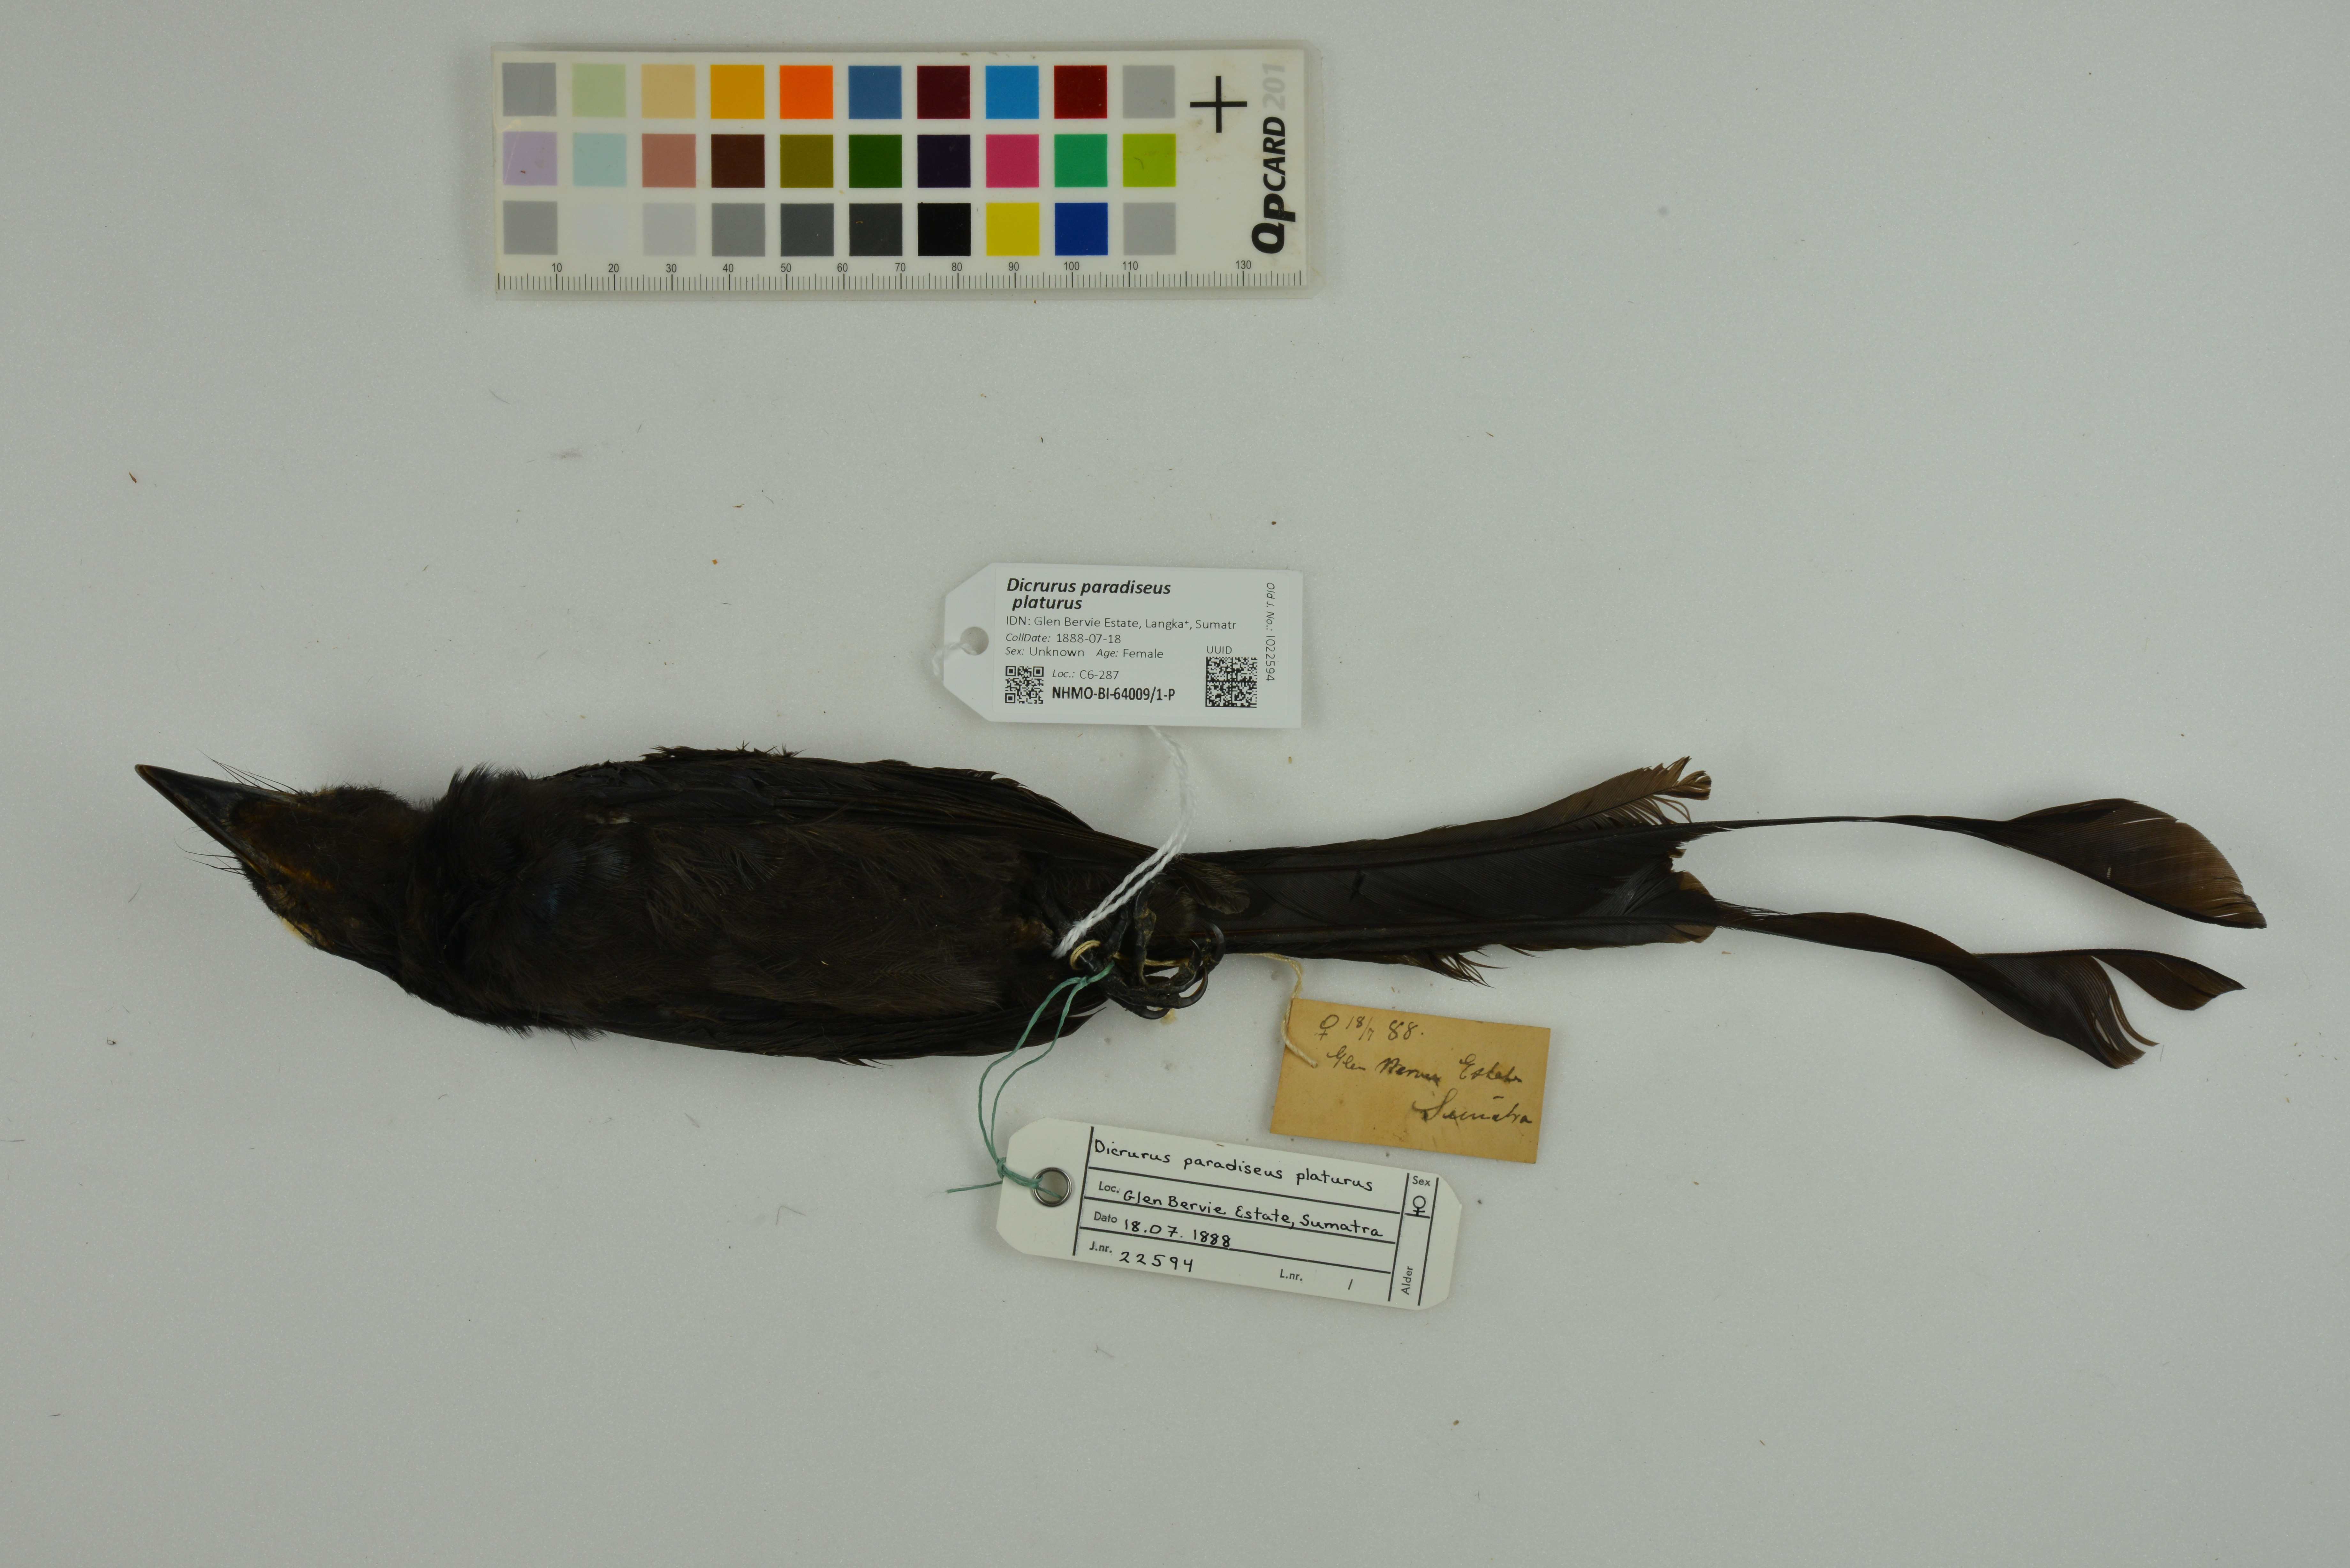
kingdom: Animalia
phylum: Chordata
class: Aves
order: Passeriformes
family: Dicruridae
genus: Dicrurus
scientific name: Dicrurus paradiseus
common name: Greater racket-tailed drongo
